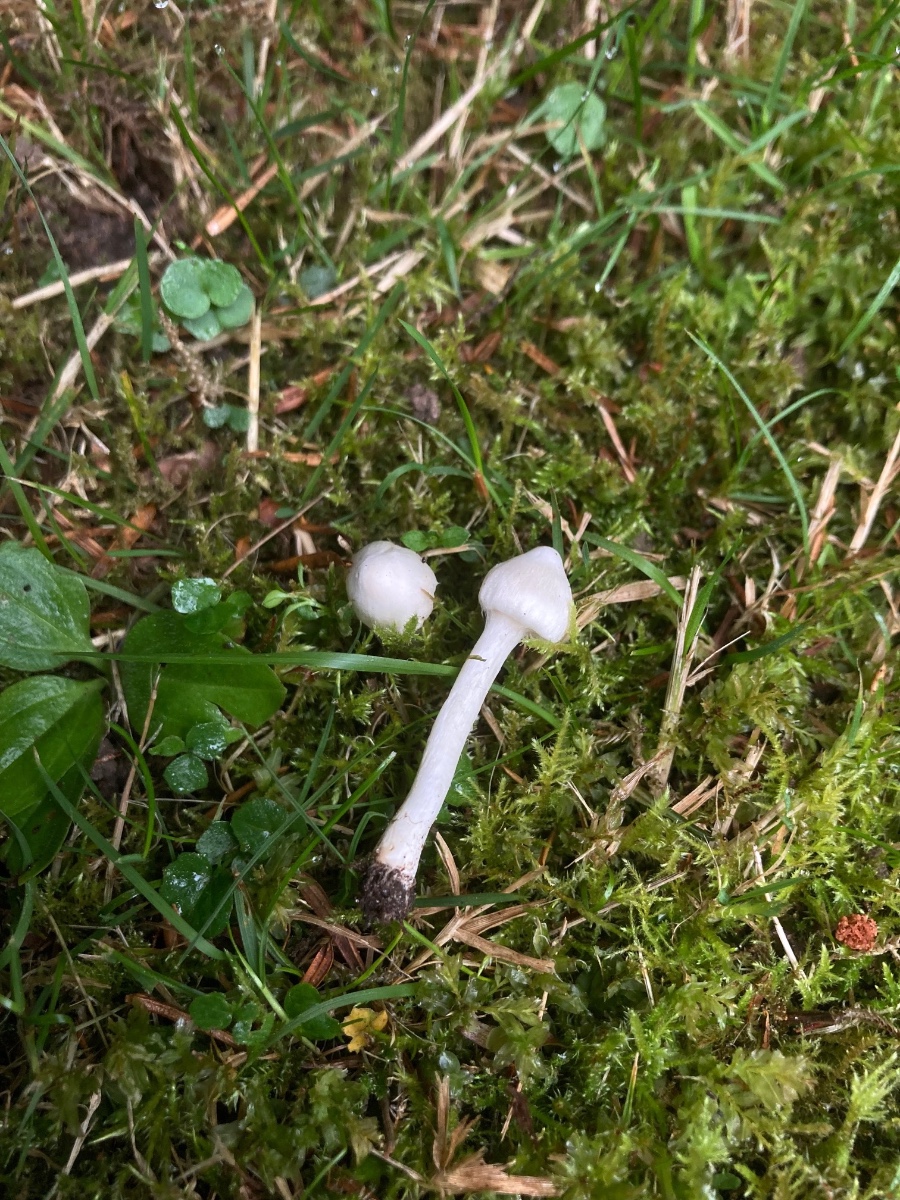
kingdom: Fungi
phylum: Basidiomycota
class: Agaricomycetes
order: Agaricales
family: Inocybaceae
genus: Inocybe
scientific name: Inocybe
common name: almindelig trævlhat
